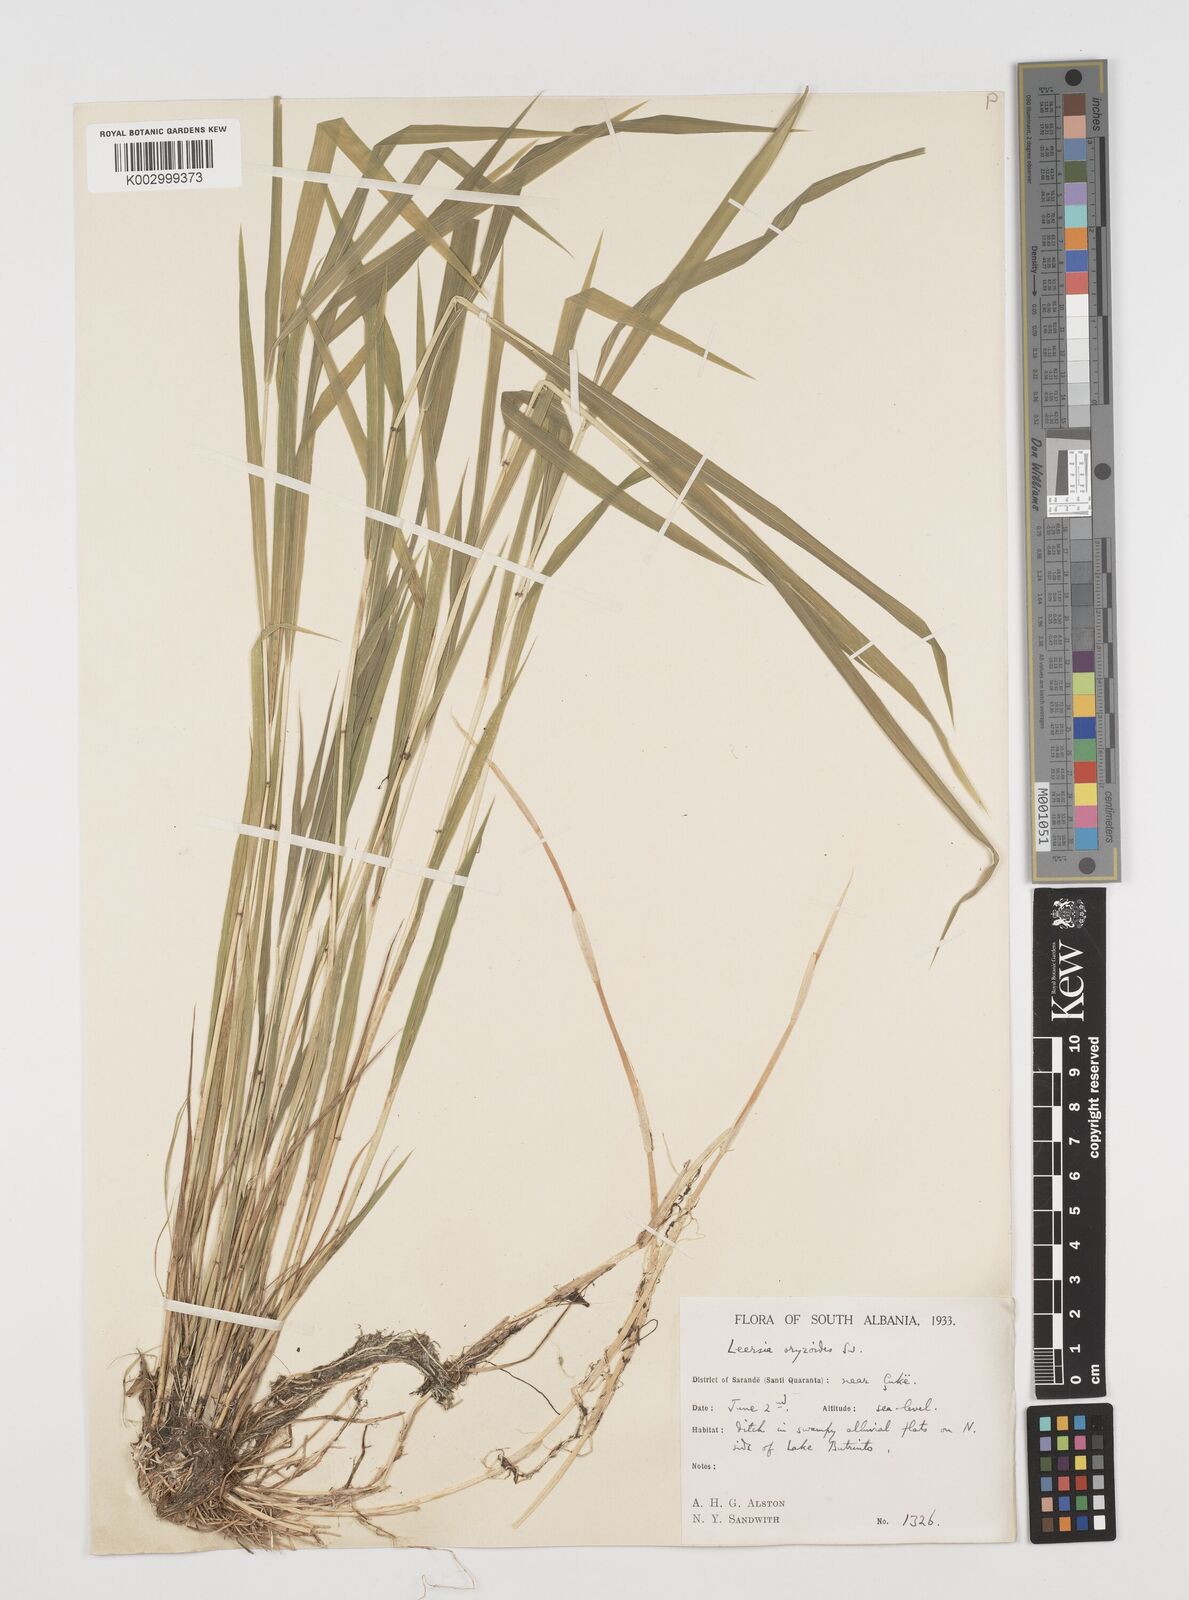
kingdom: Plantae
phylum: Tracheophyta
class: Liliopsida
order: Poales
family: Poaceae
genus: Leersia
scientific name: Leersia oryzoides
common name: Cut-grass
